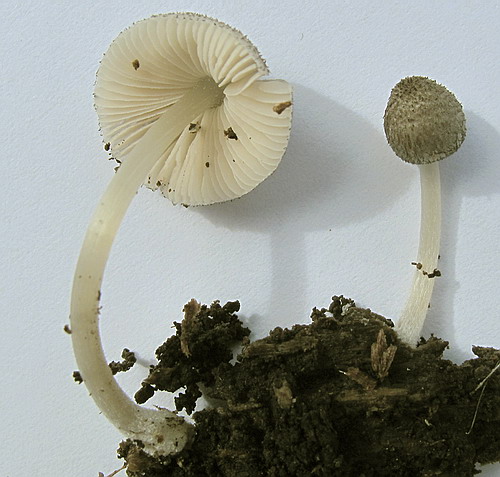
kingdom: Fungi
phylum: Basidiomycota
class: Agaricomycetes
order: Agaricales
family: Pluteaceae
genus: Pluteus
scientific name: Pluteus
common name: stivhåret skærmhat
